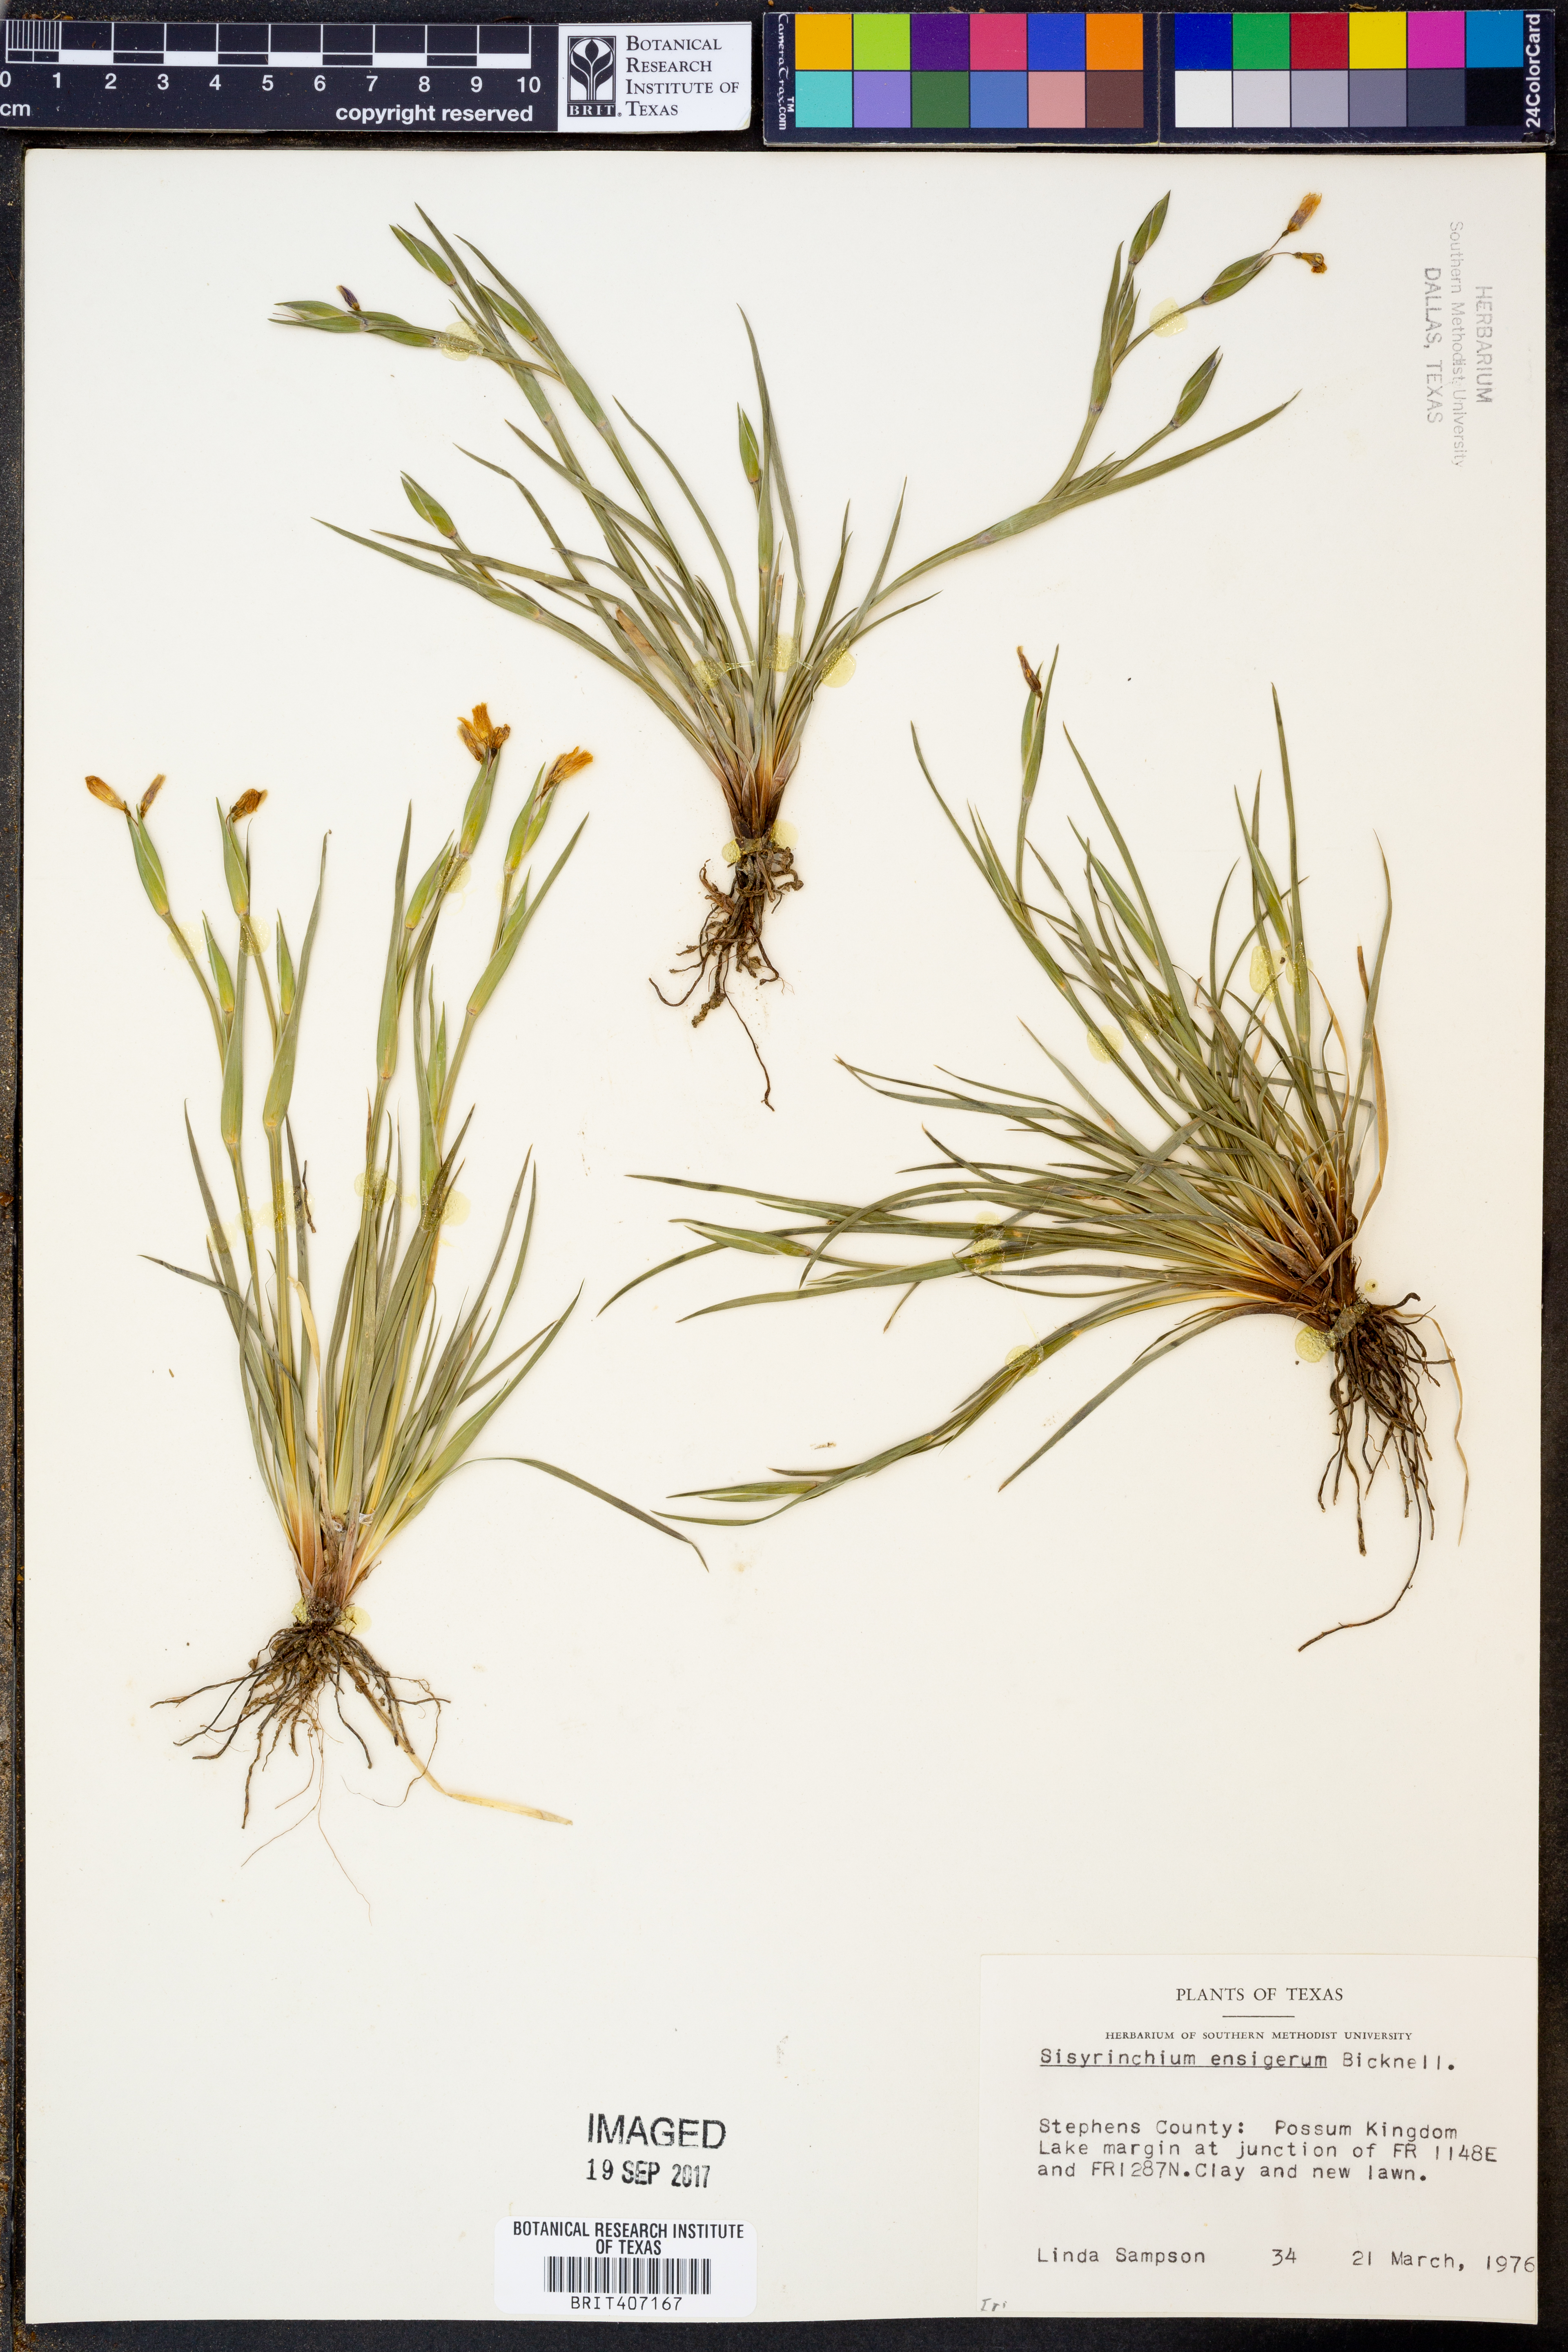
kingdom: Plantae
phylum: Tracheophyta
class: Liliopsida
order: Asparagales
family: Iridaceae
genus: Sisyrinchium
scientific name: Sisyrinchium ensigerum
